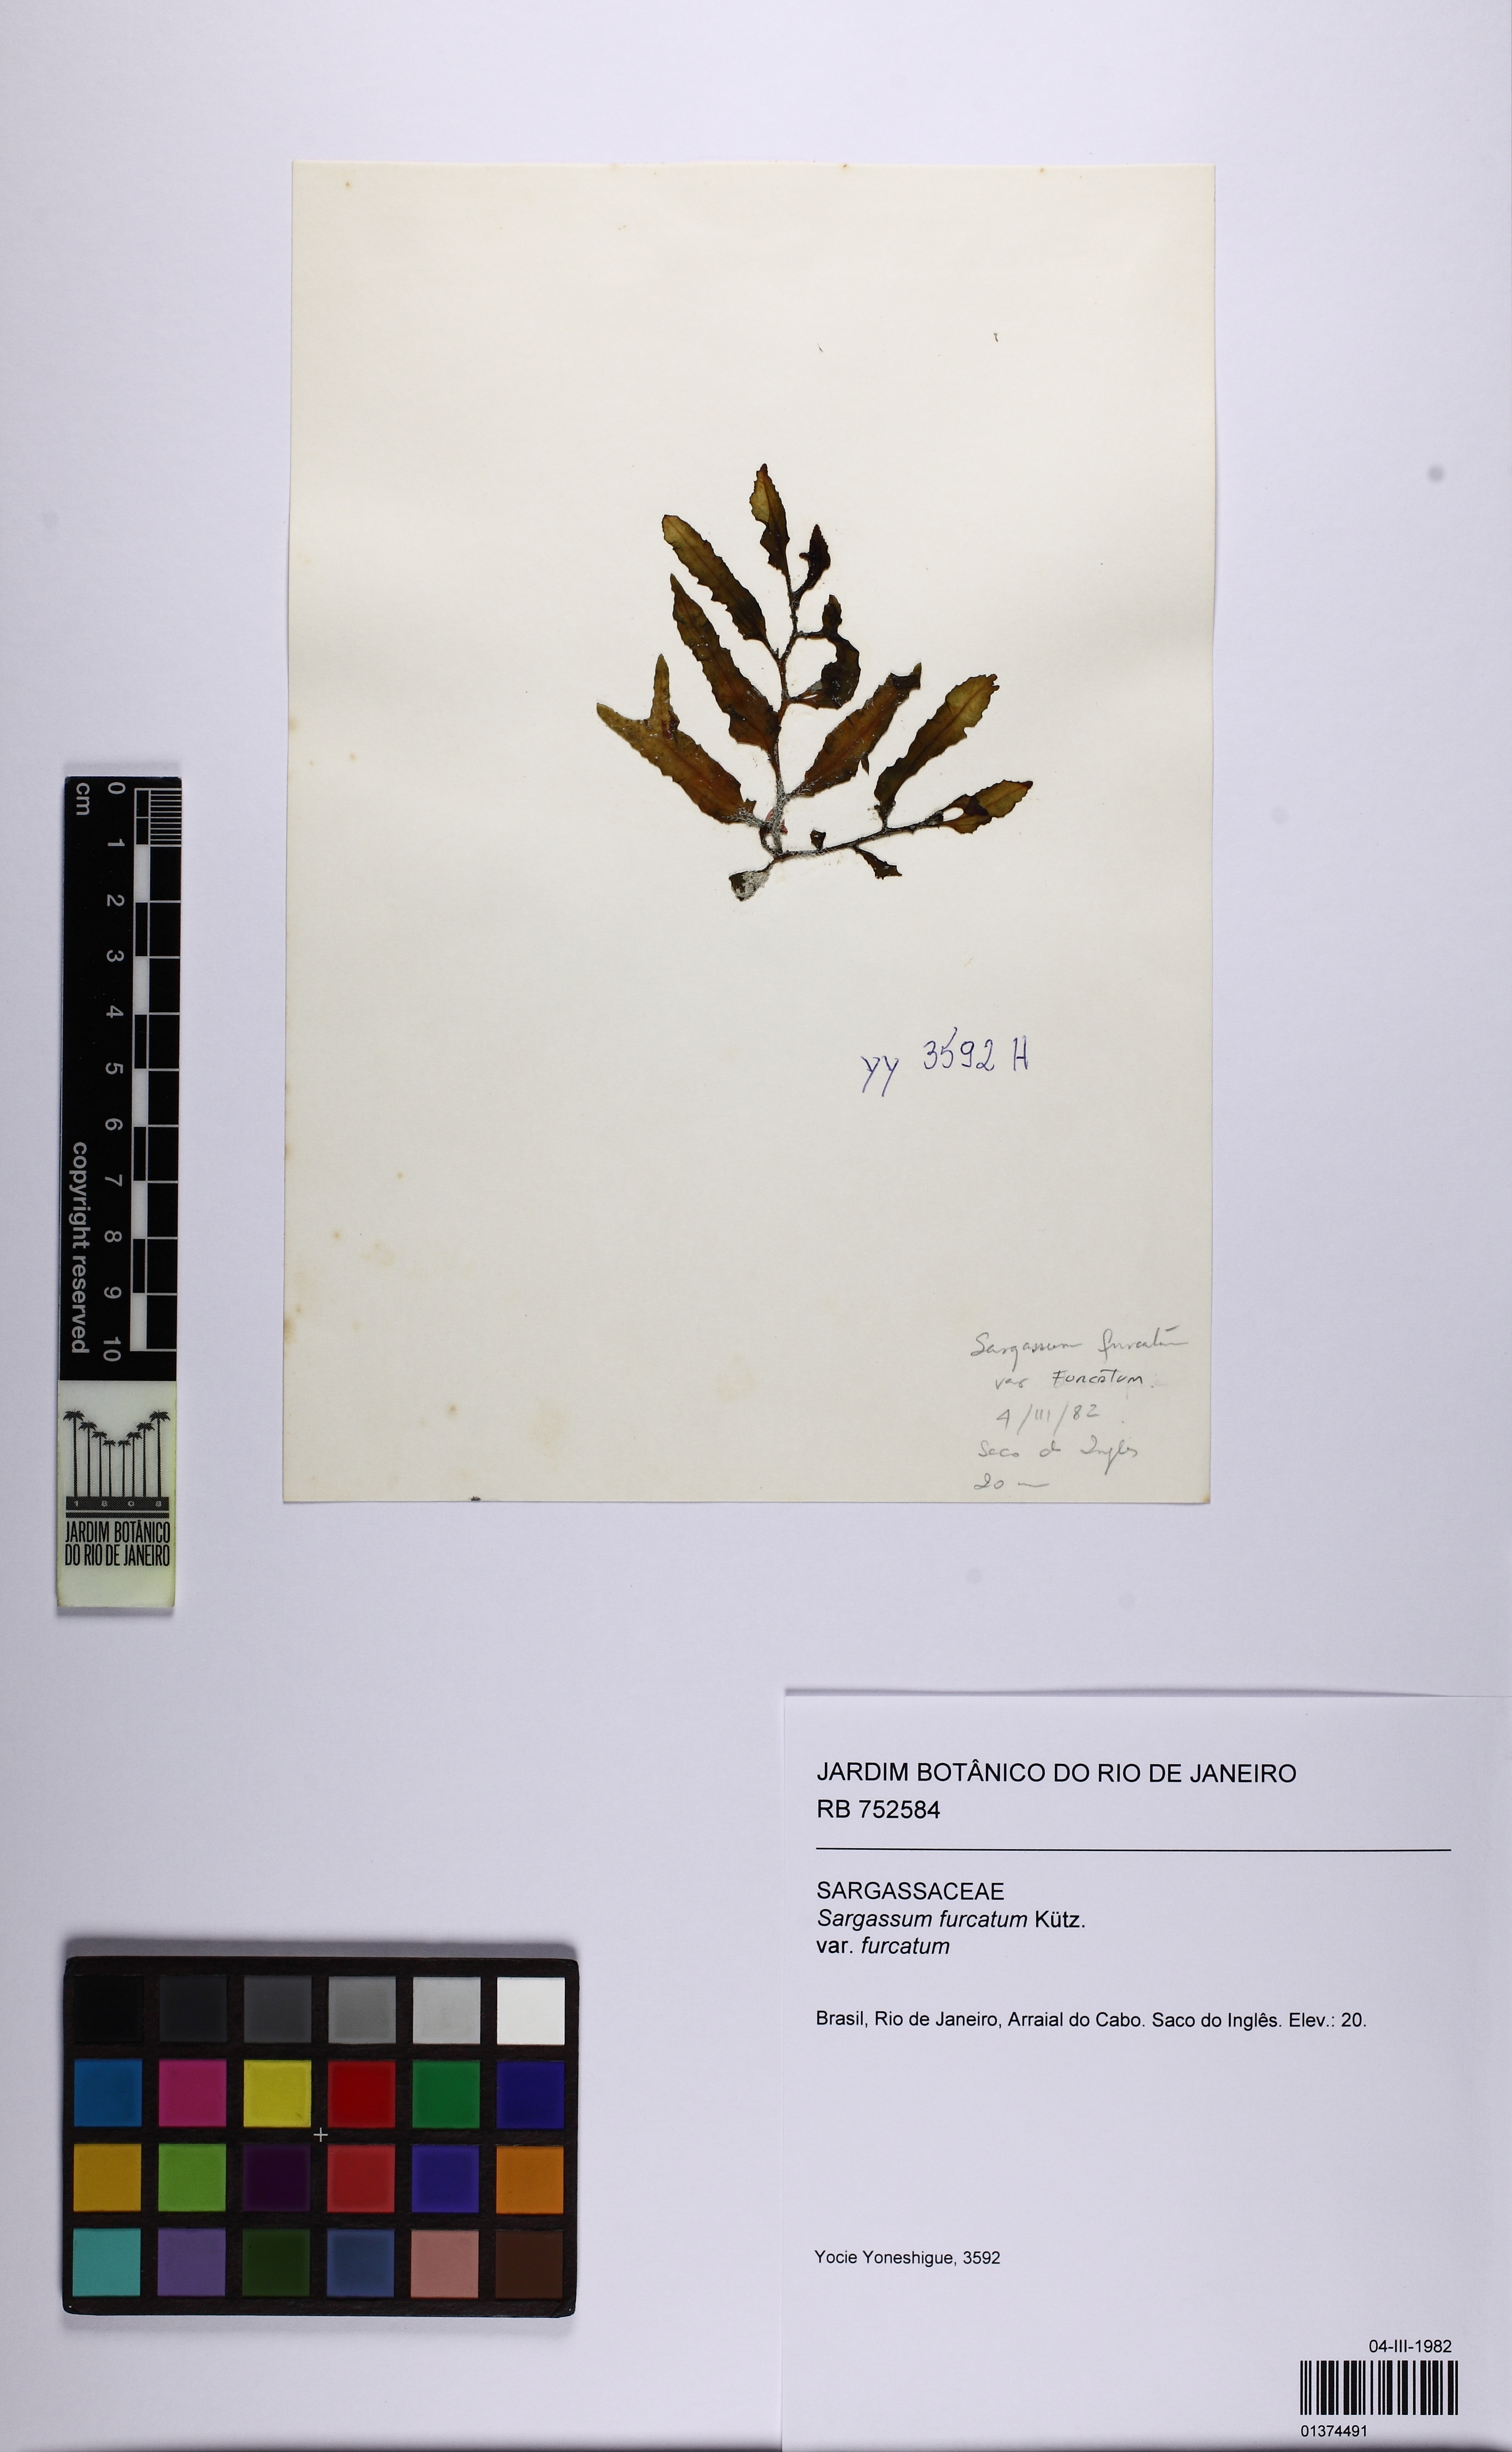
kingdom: Chromista
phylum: Ochrophyta
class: Phaeophyceae
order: Fucales
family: Sargassaceae
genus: Sargassum
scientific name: Sargassum furcatum
